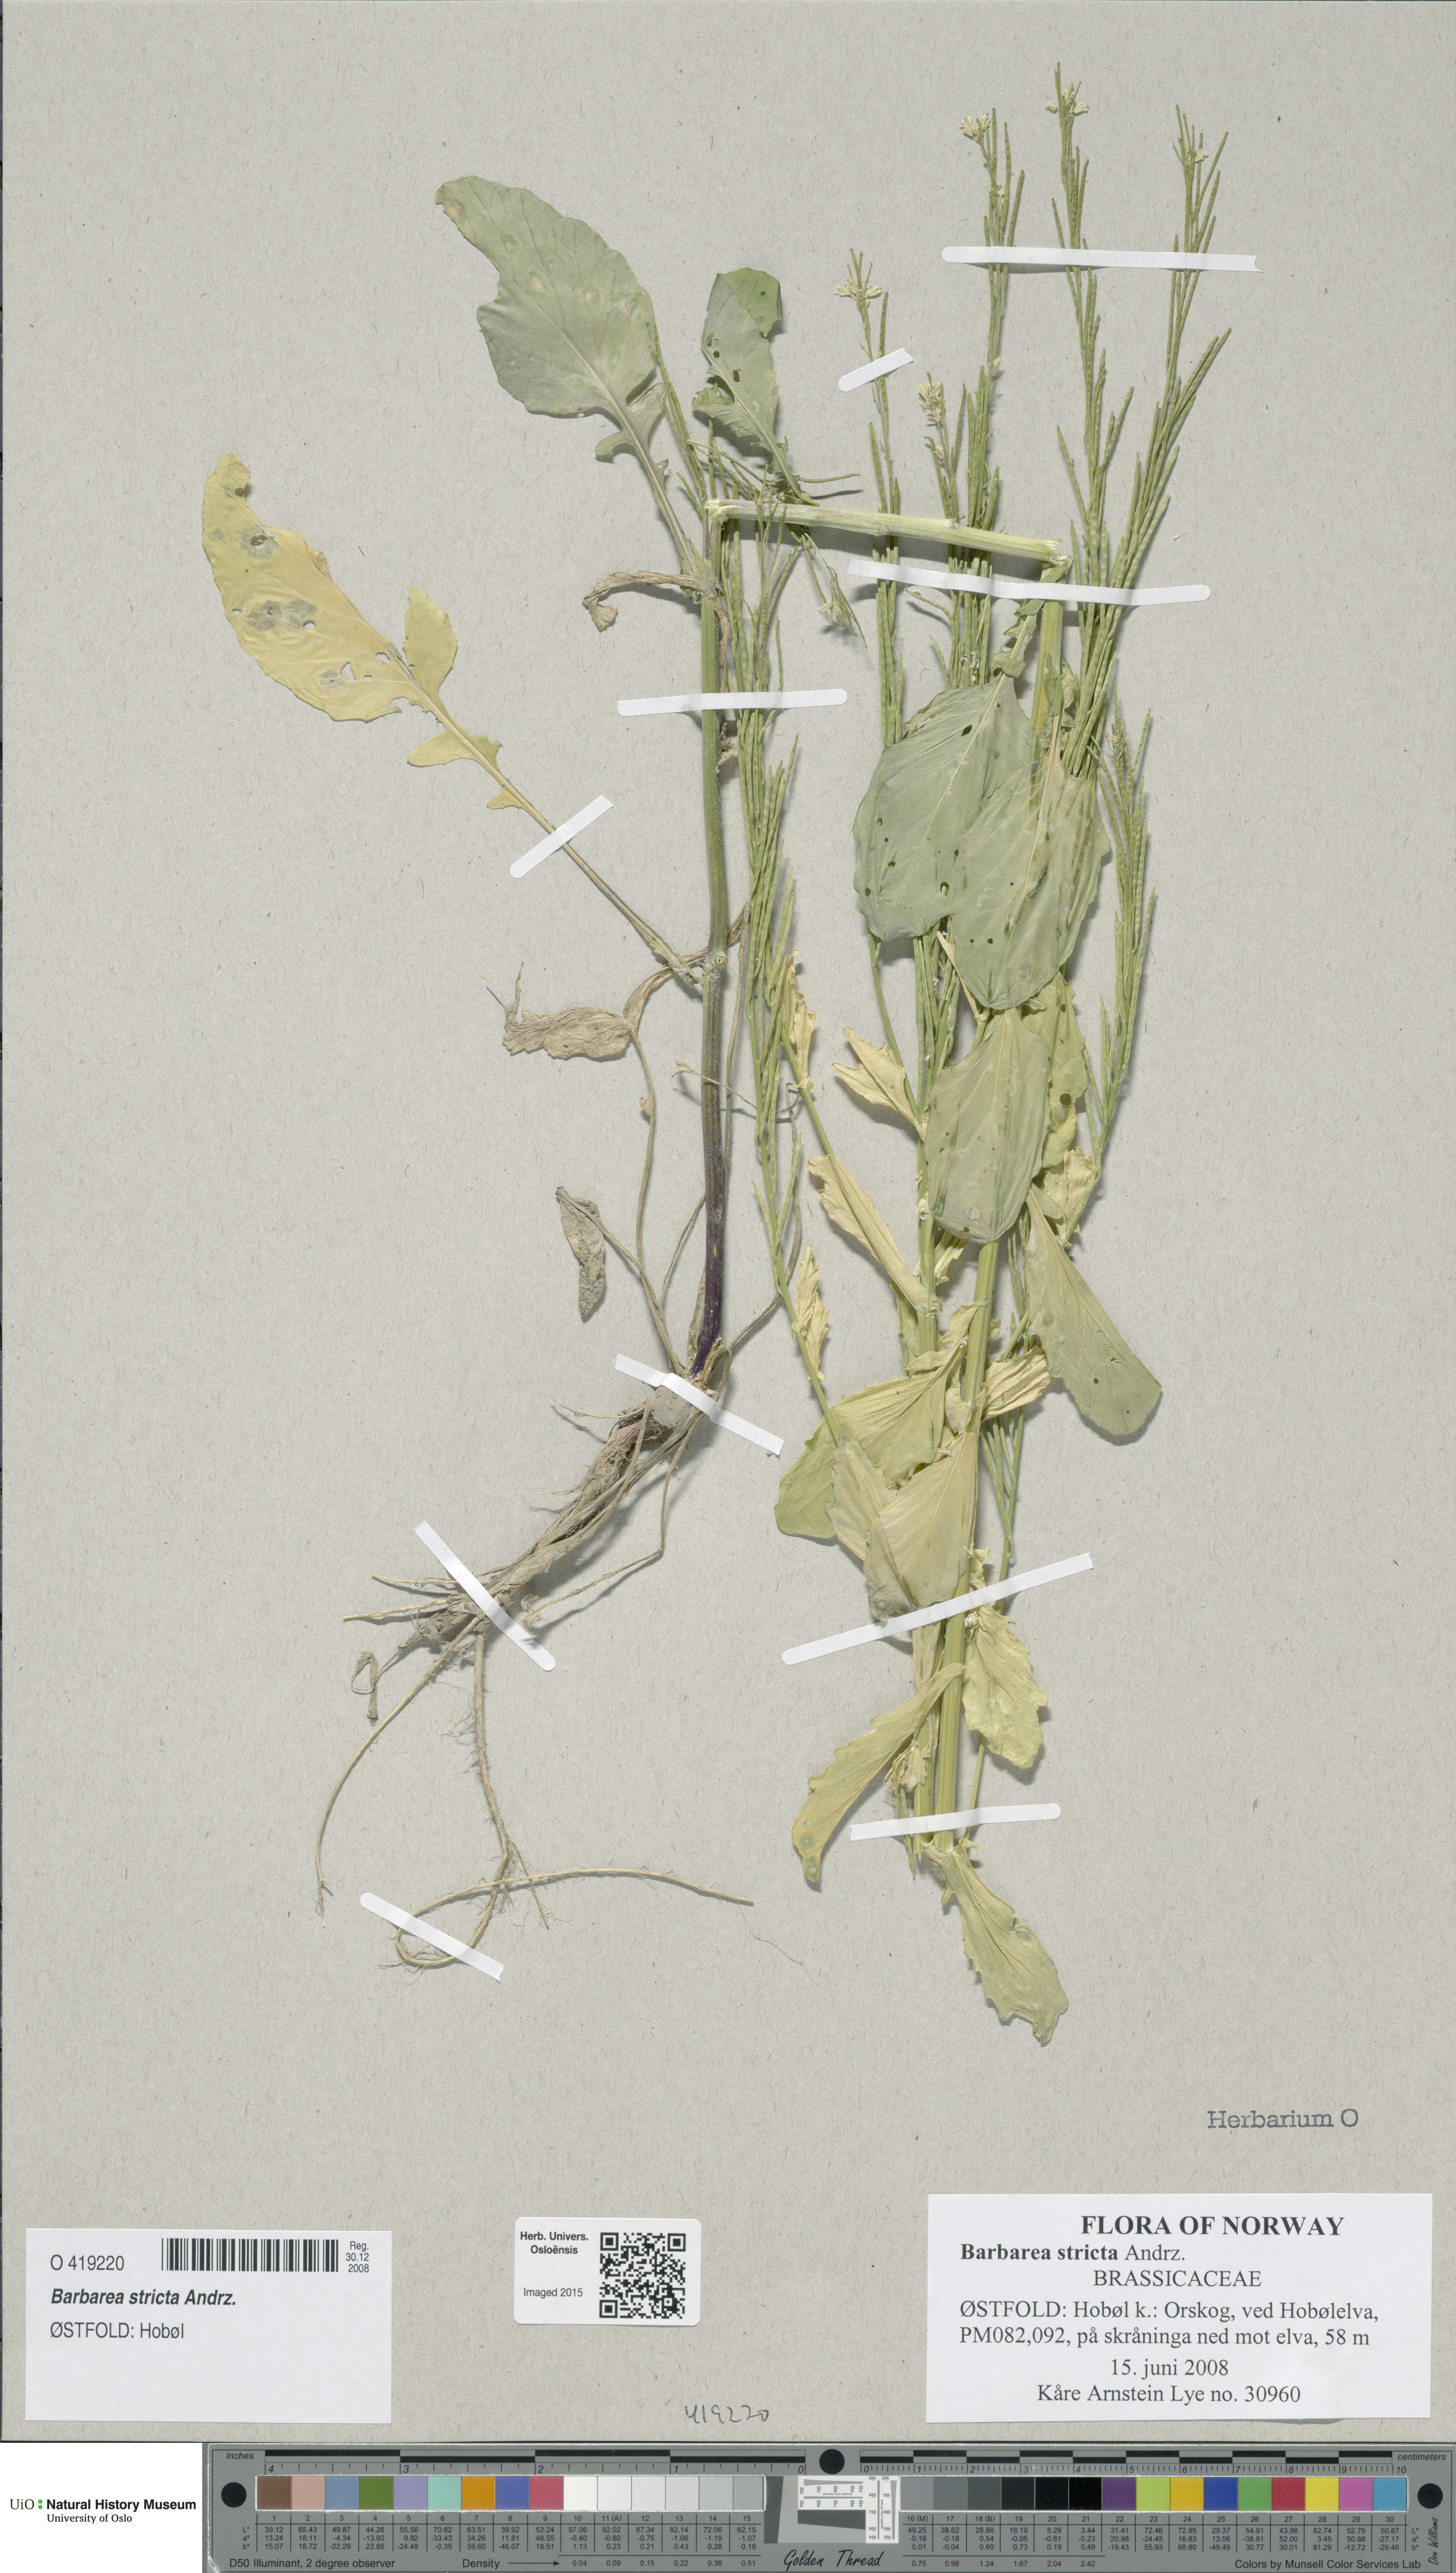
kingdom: Plantae
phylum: Tracheophyta
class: Magnoliopsida
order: Brassicales
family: Brassicaceae
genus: Barbarea
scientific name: Barbarea stricta
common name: Small-flowered winter-cress
